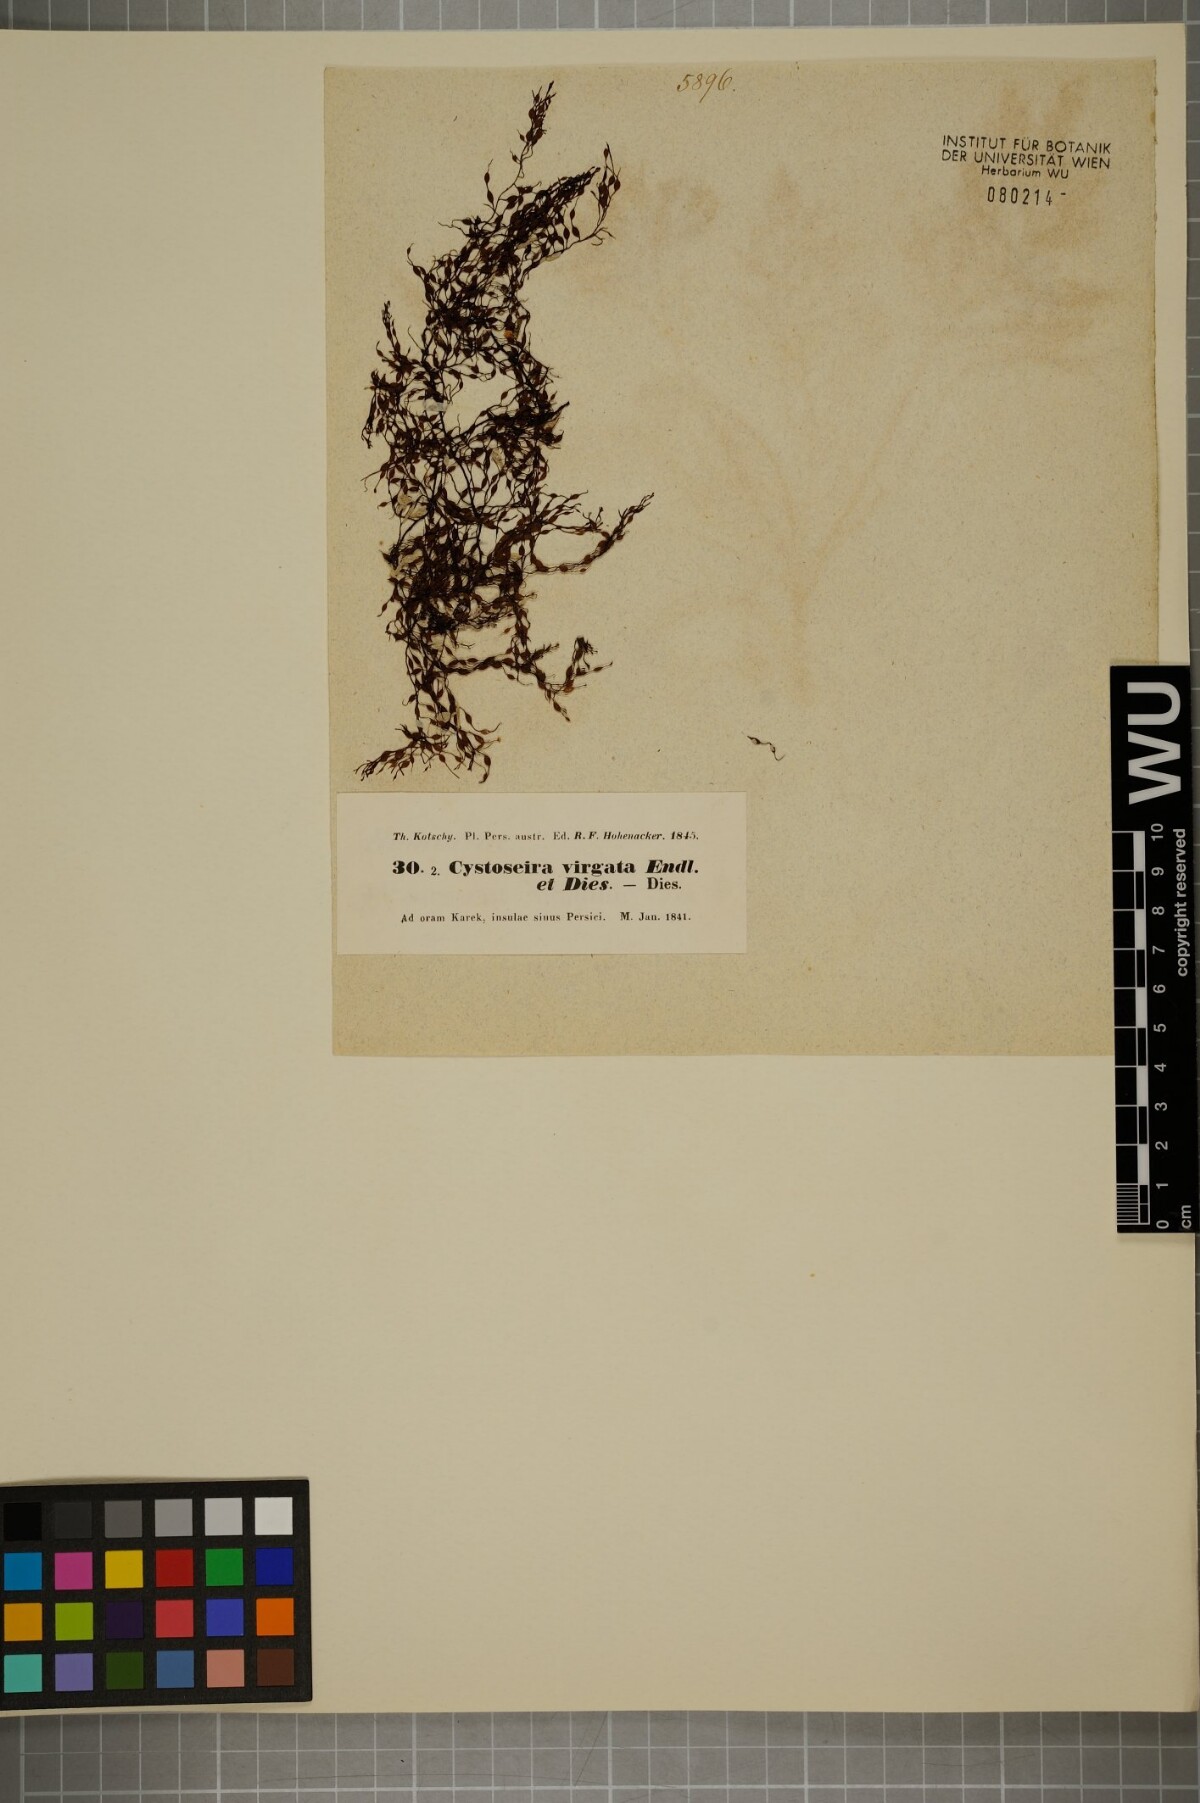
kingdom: Chromista
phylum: Ochrophyta
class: Phaeophyceae
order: Fucales
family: Sargassaceae
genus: Cystoseira
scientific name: Cystoseira
